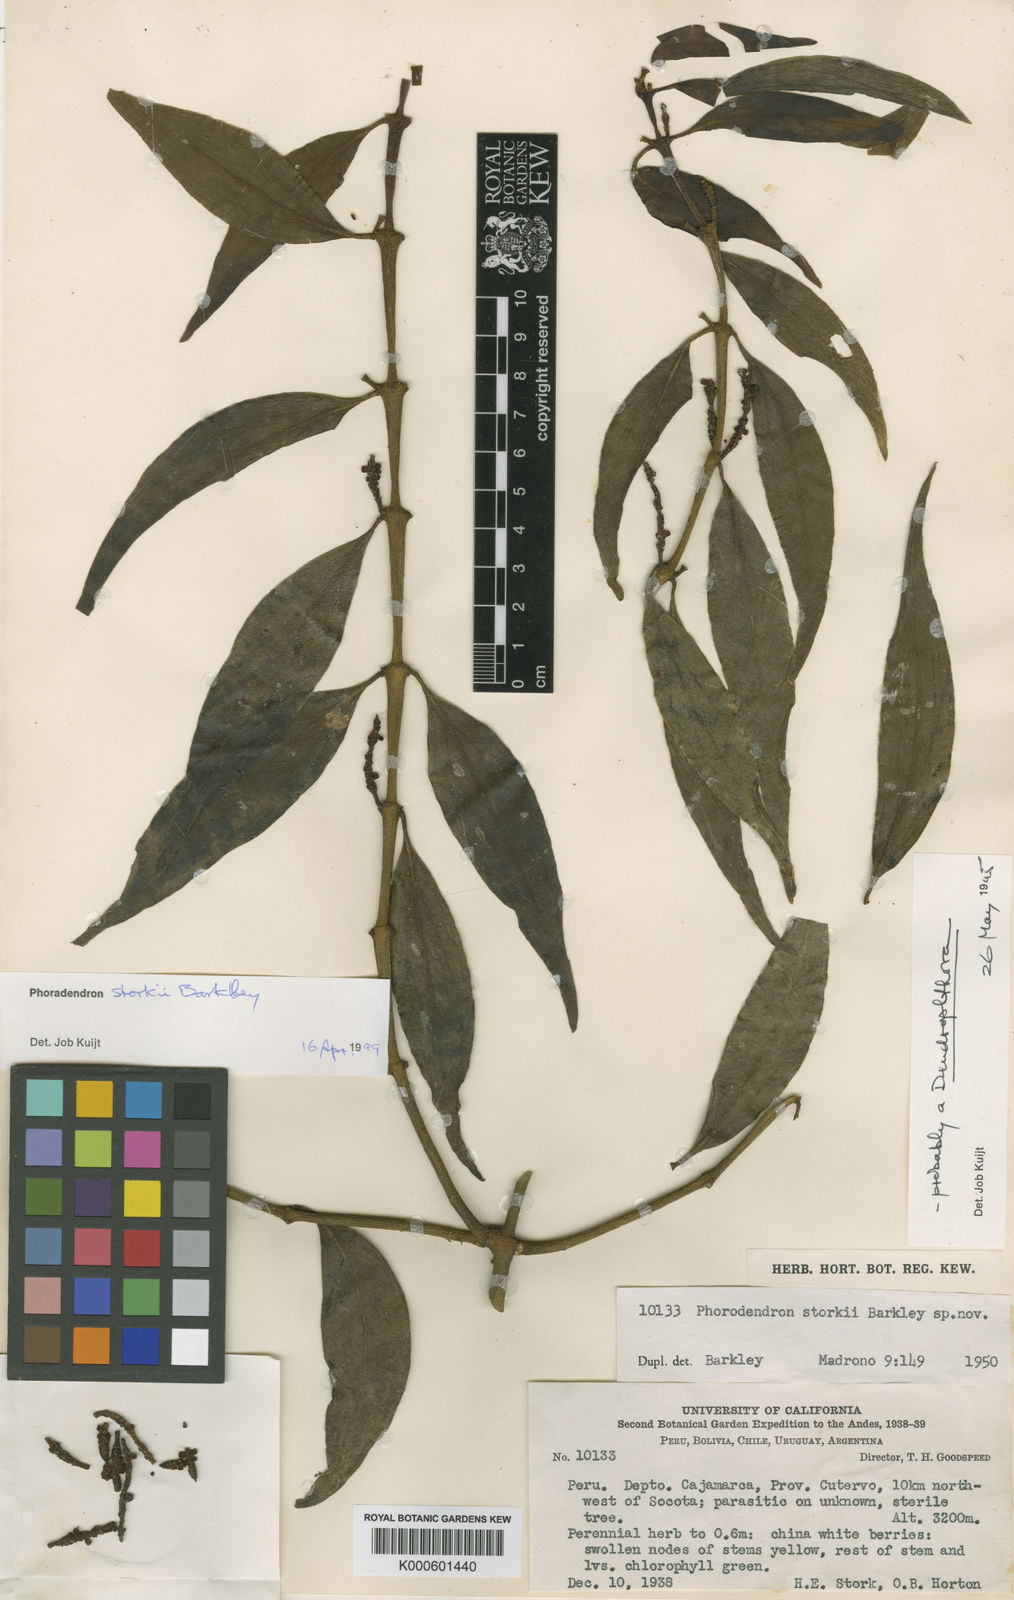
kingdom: Plantae
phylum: Tracheophyta
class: Magnoliopsida
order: Santalales
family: Viscaceae
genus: Phoradendron
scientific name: Phoradendron storkii
